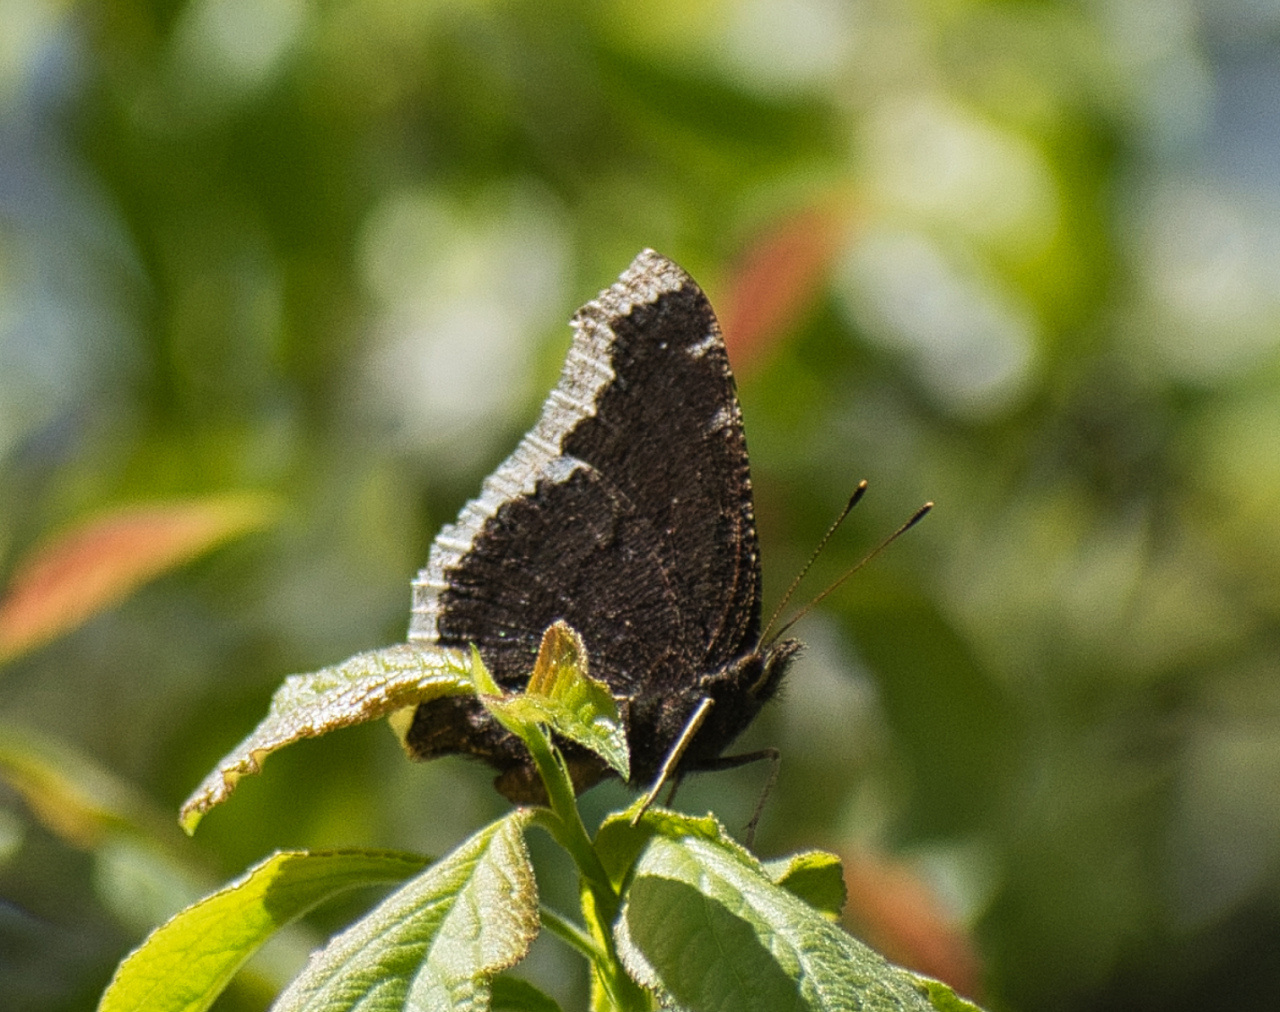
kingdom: Animalia
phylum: Arthropoda
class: Insecta
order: Lepidoptera
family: Nymphalidae
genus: Nymphalis
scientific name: Nymphalis antiopa
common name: Mourning Cloak
